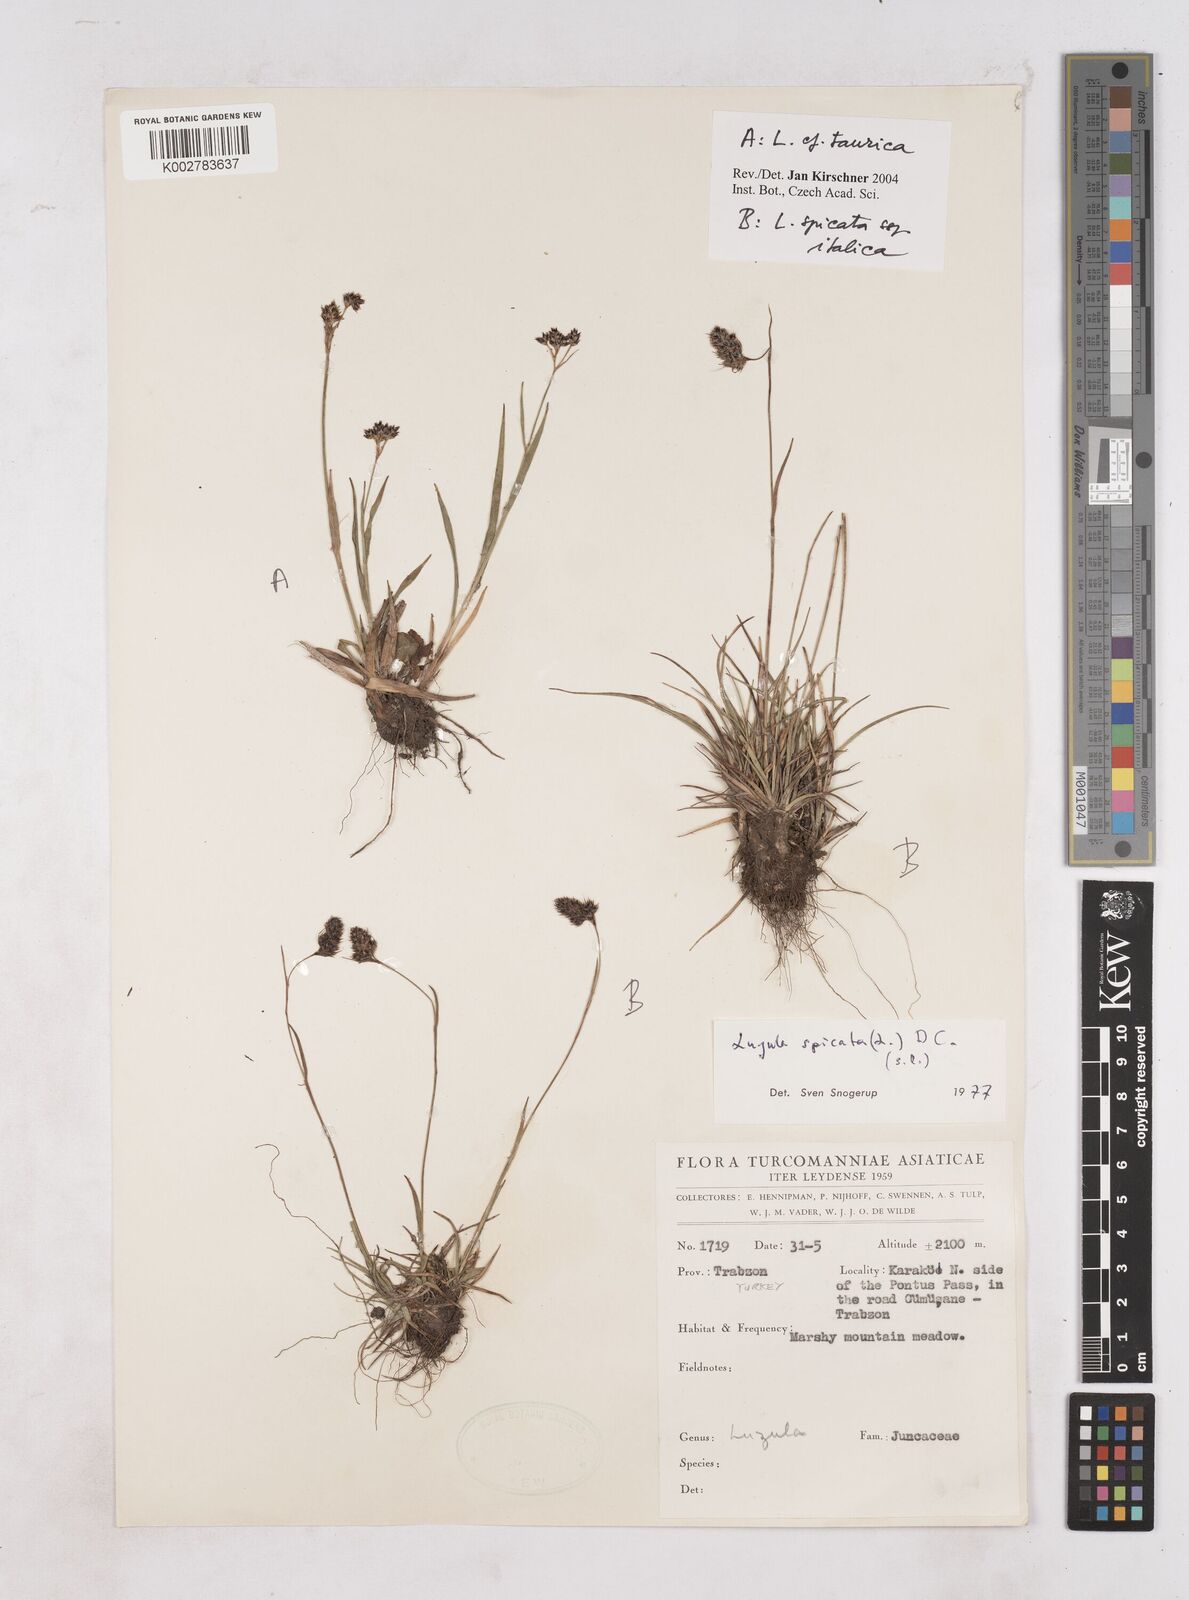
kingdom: Plantae
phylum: Tracheophyta
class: Liliopsida
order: Poales
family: Juncaceae
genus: Luzula
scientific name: Luzula spicata
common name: Spiked wood-rush
